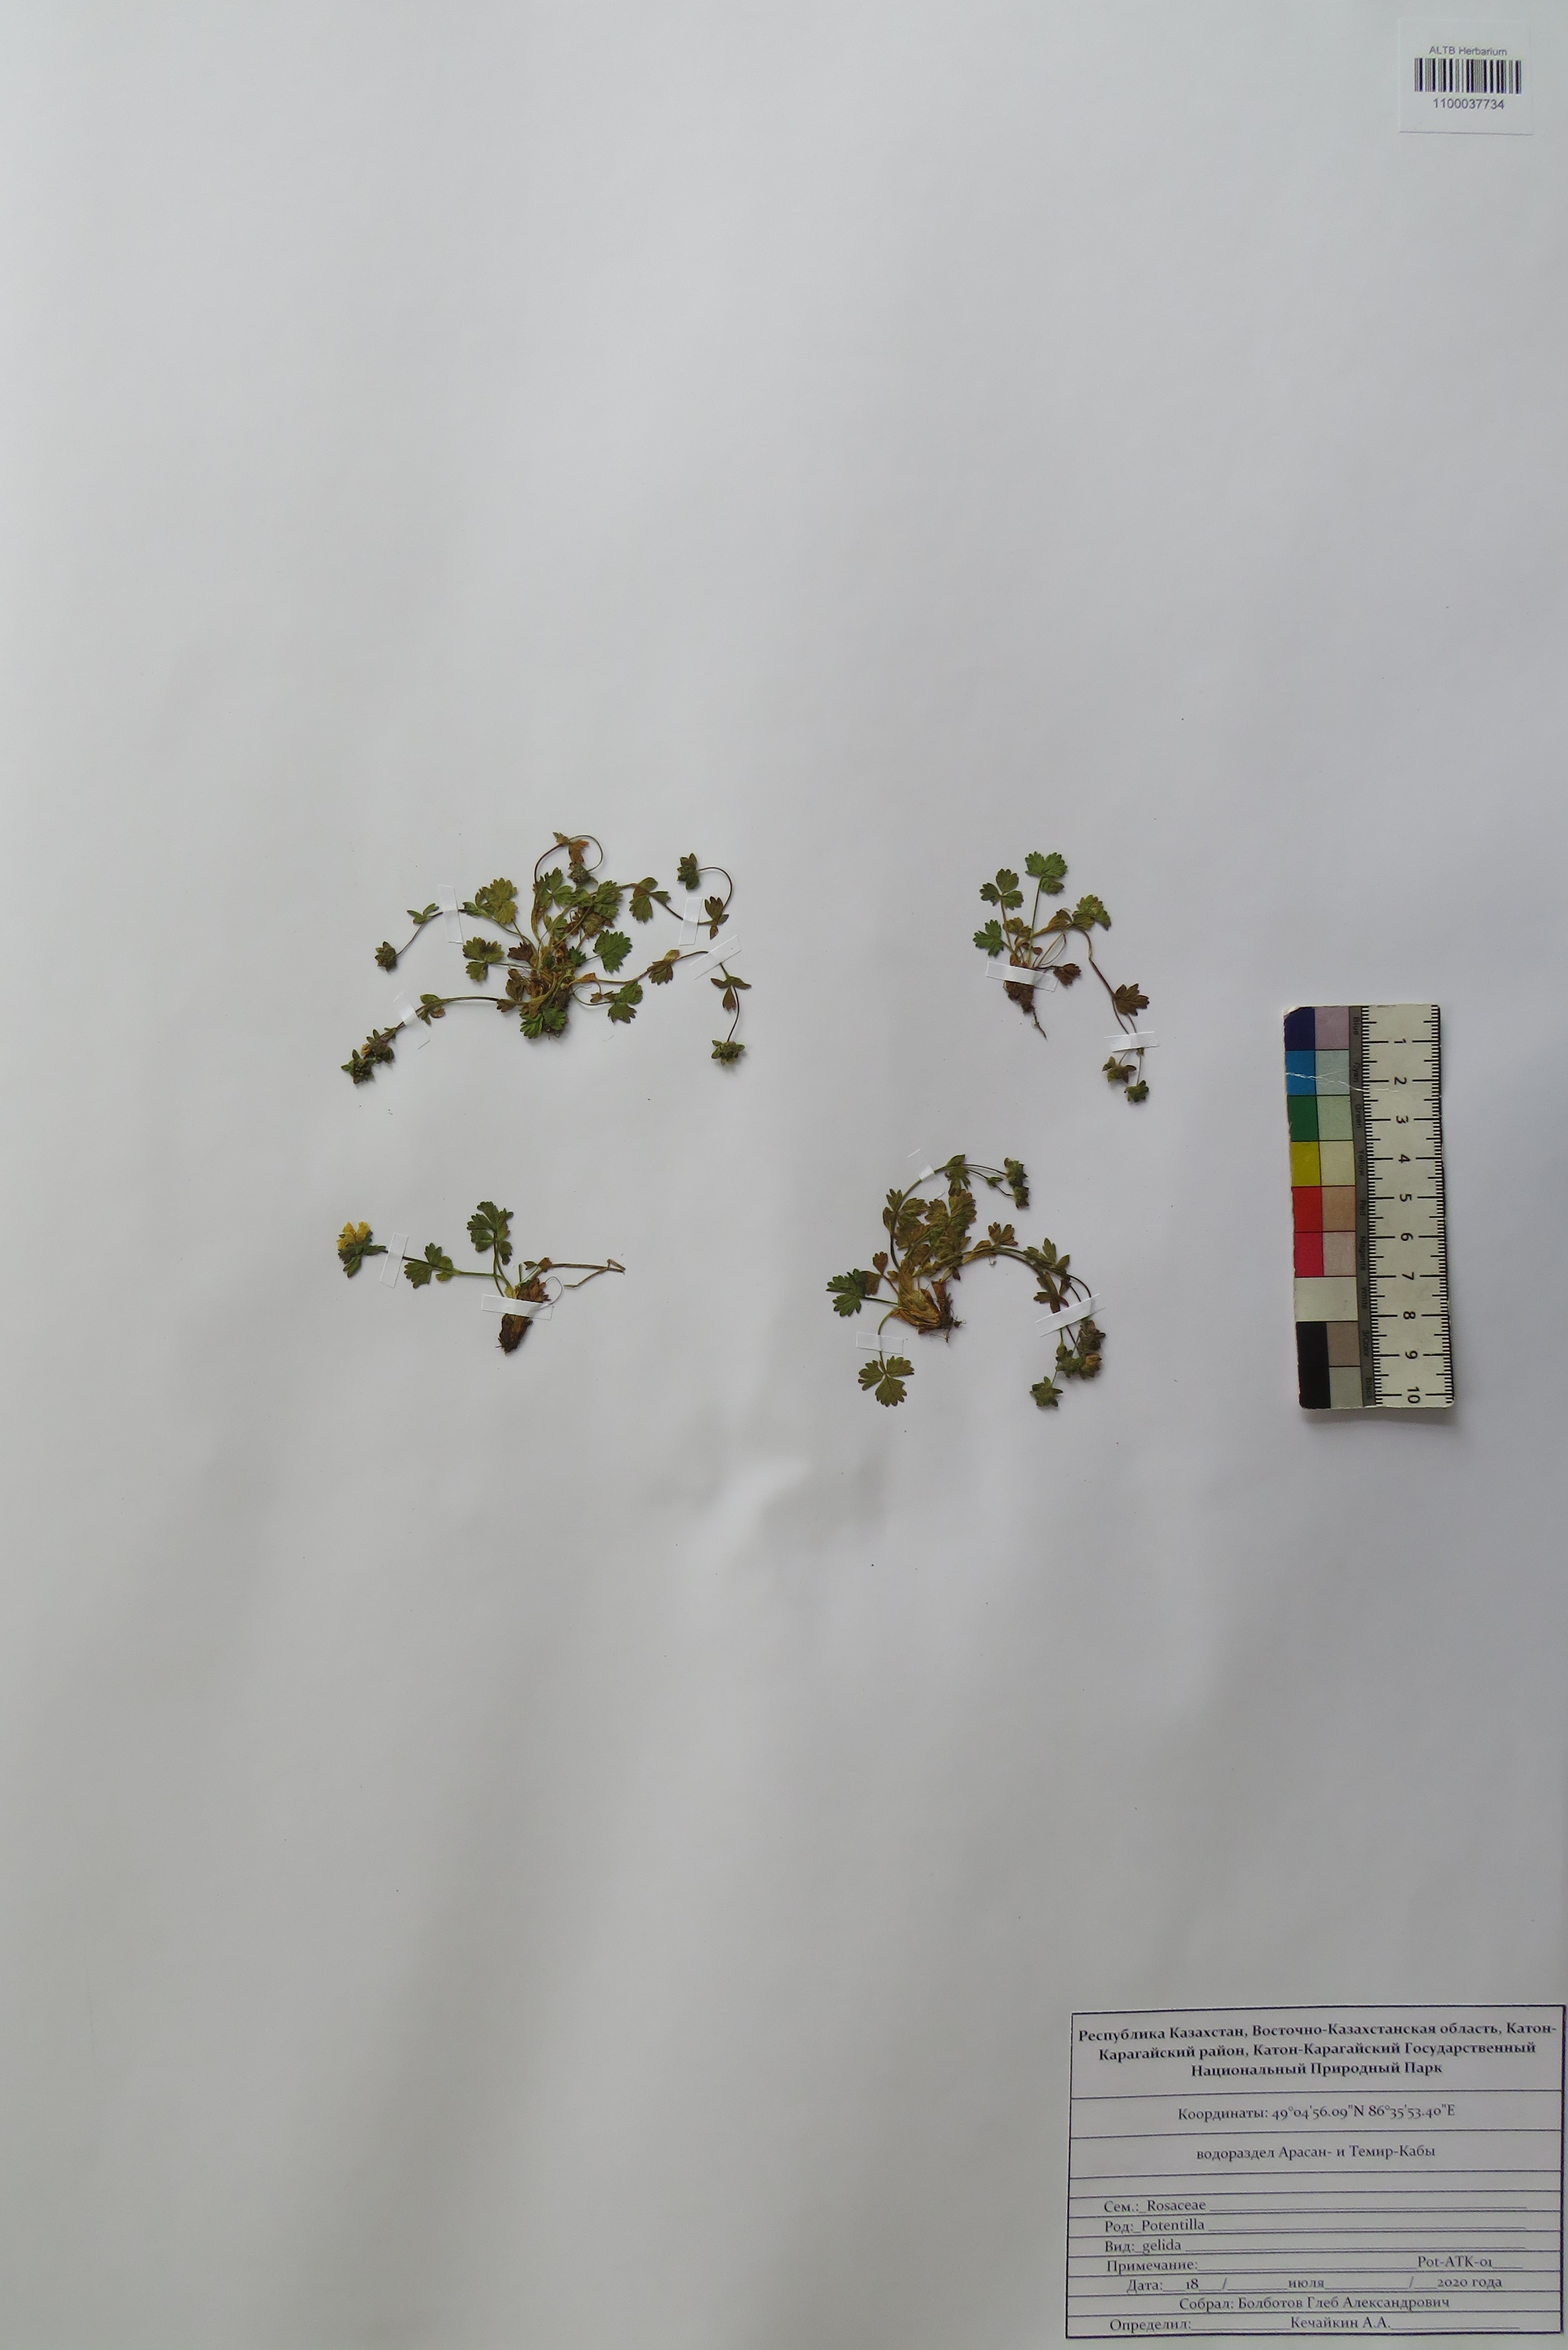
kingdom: Plantae
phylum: Tracheophyta
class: Magnoliopsida
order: Rosales
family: Rosaceae
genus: Potentilla
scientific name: Potentilla crantzii
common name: Alpine cinquefoil
